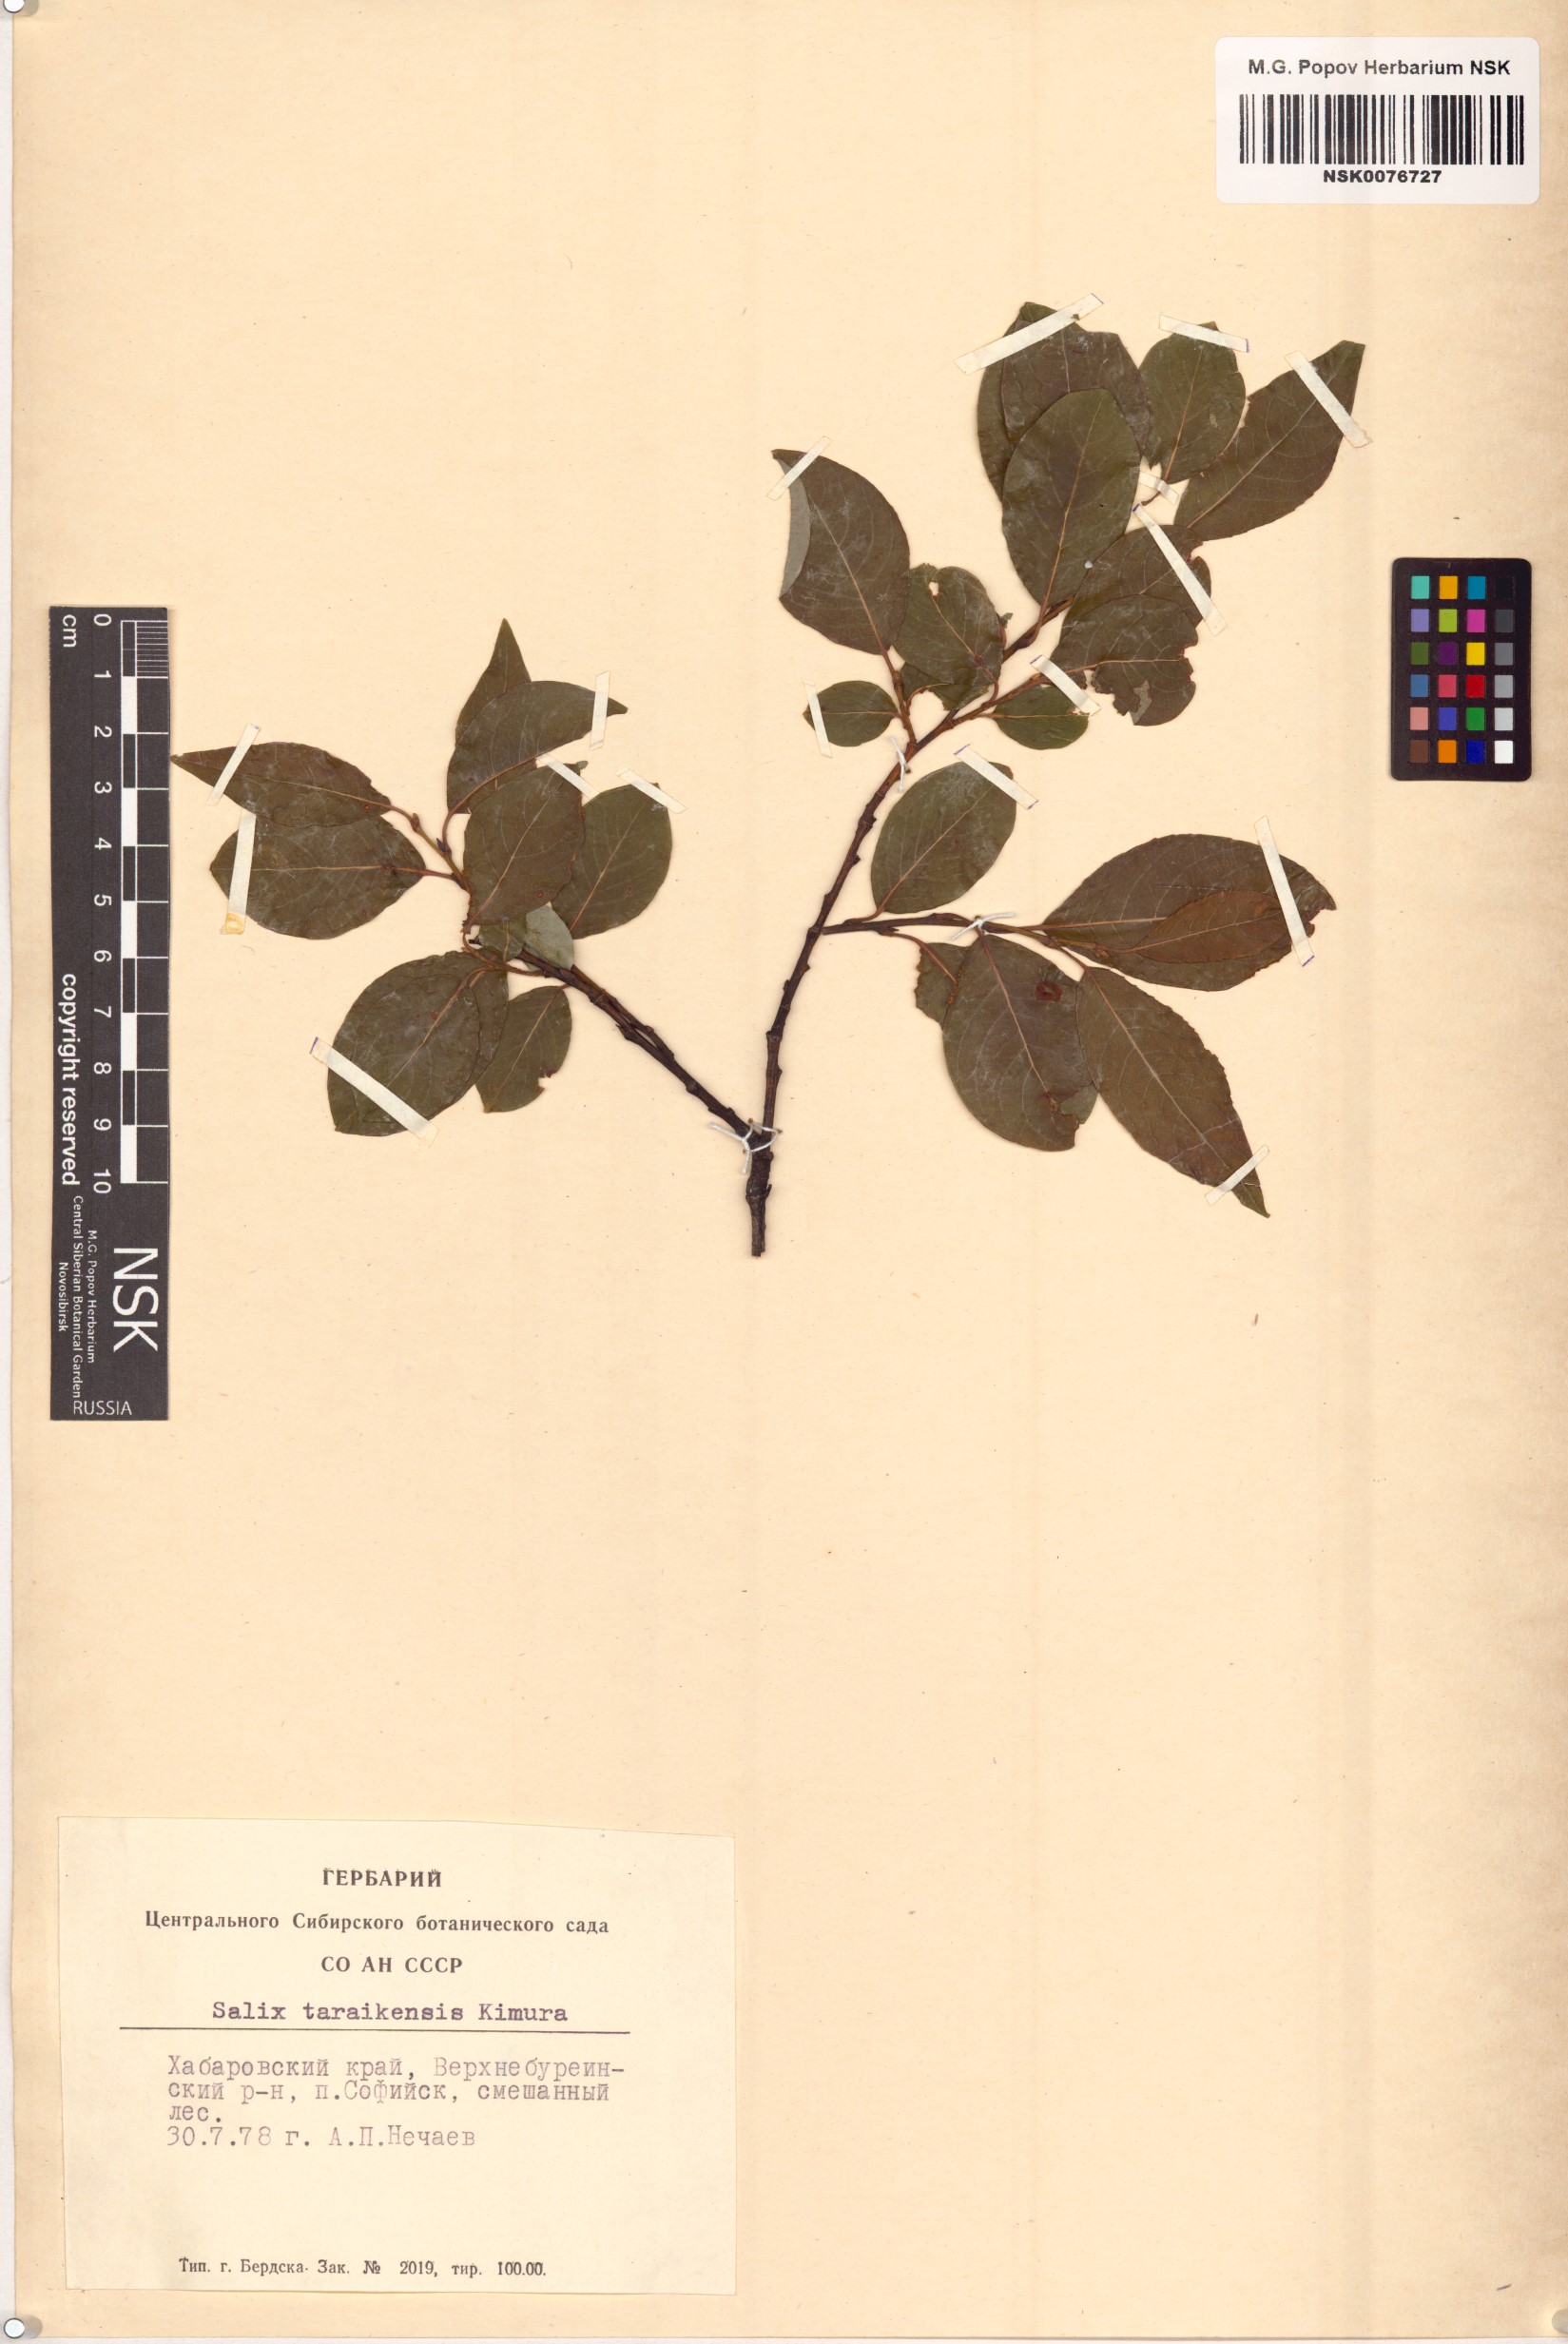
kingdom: Plantae
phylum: Tracheophyta
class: Magnoliopsida
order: Malpighiales
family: Salicaceae
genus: Salix
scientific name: Salix taraikensis
